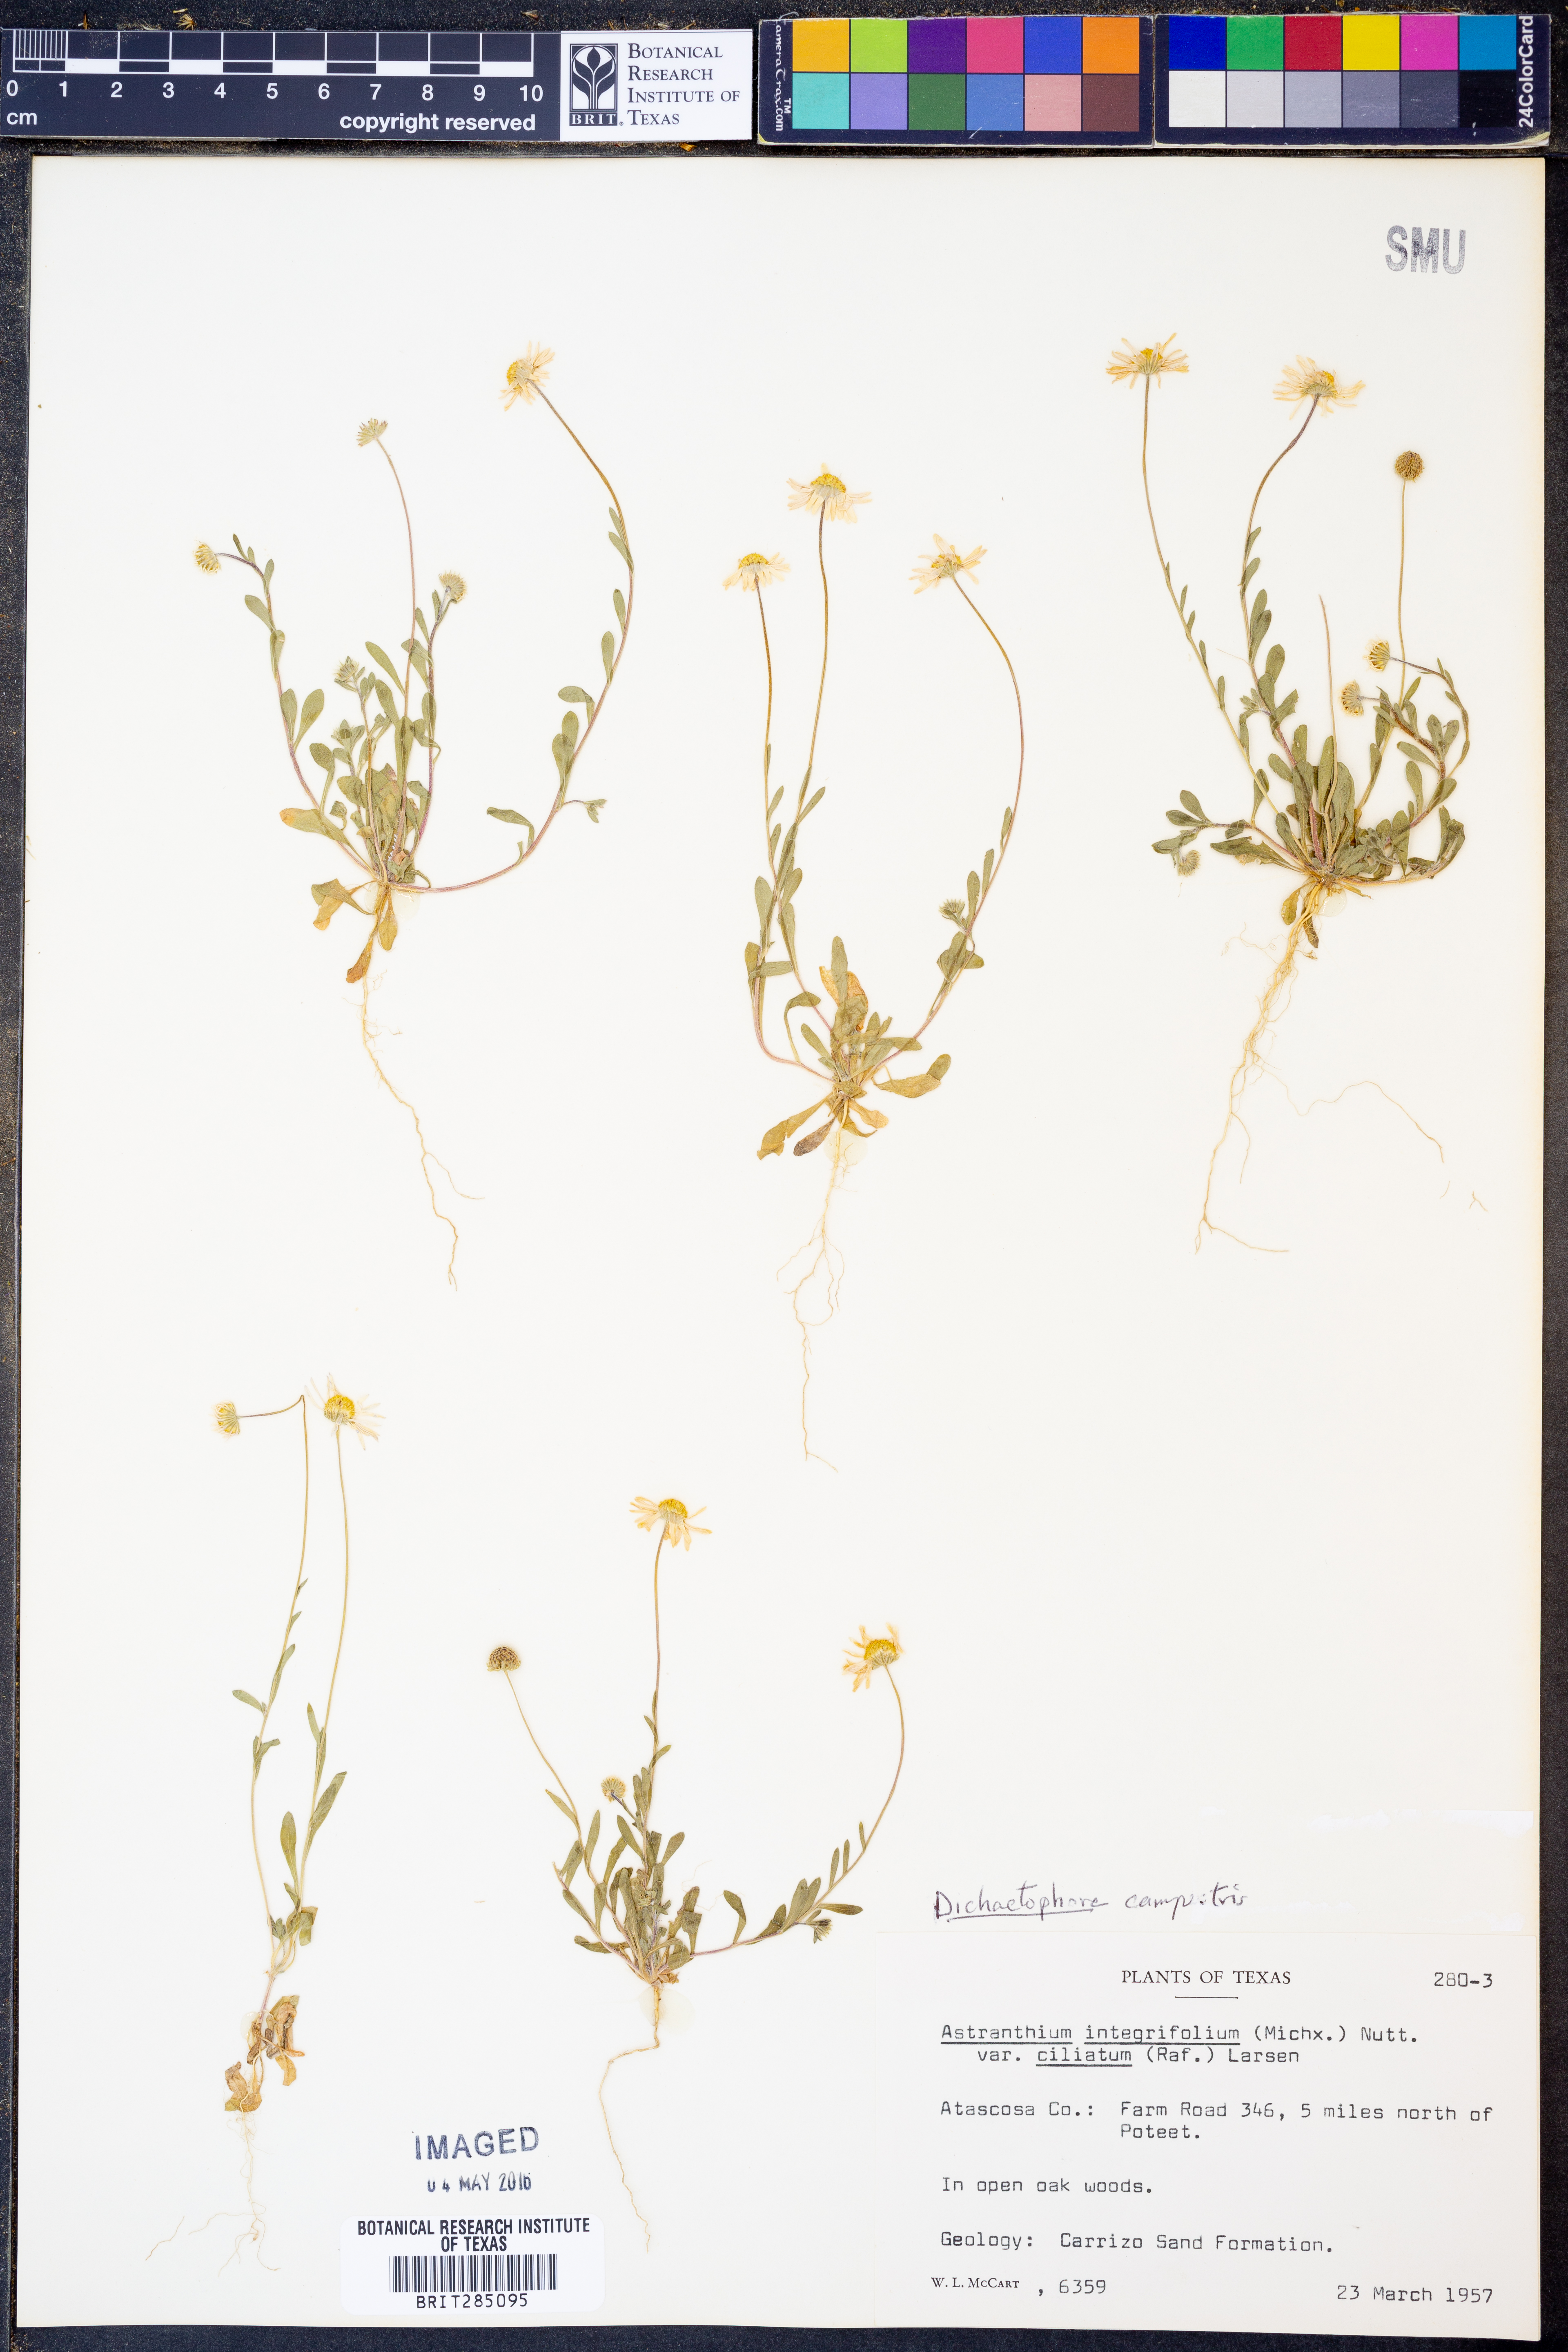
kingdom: Plantae
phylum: Tracheophyta
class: Magnoliopsida
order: Asterales
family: Asteraceae
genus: Dichaetophora
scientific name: Dichaetophora campestris
